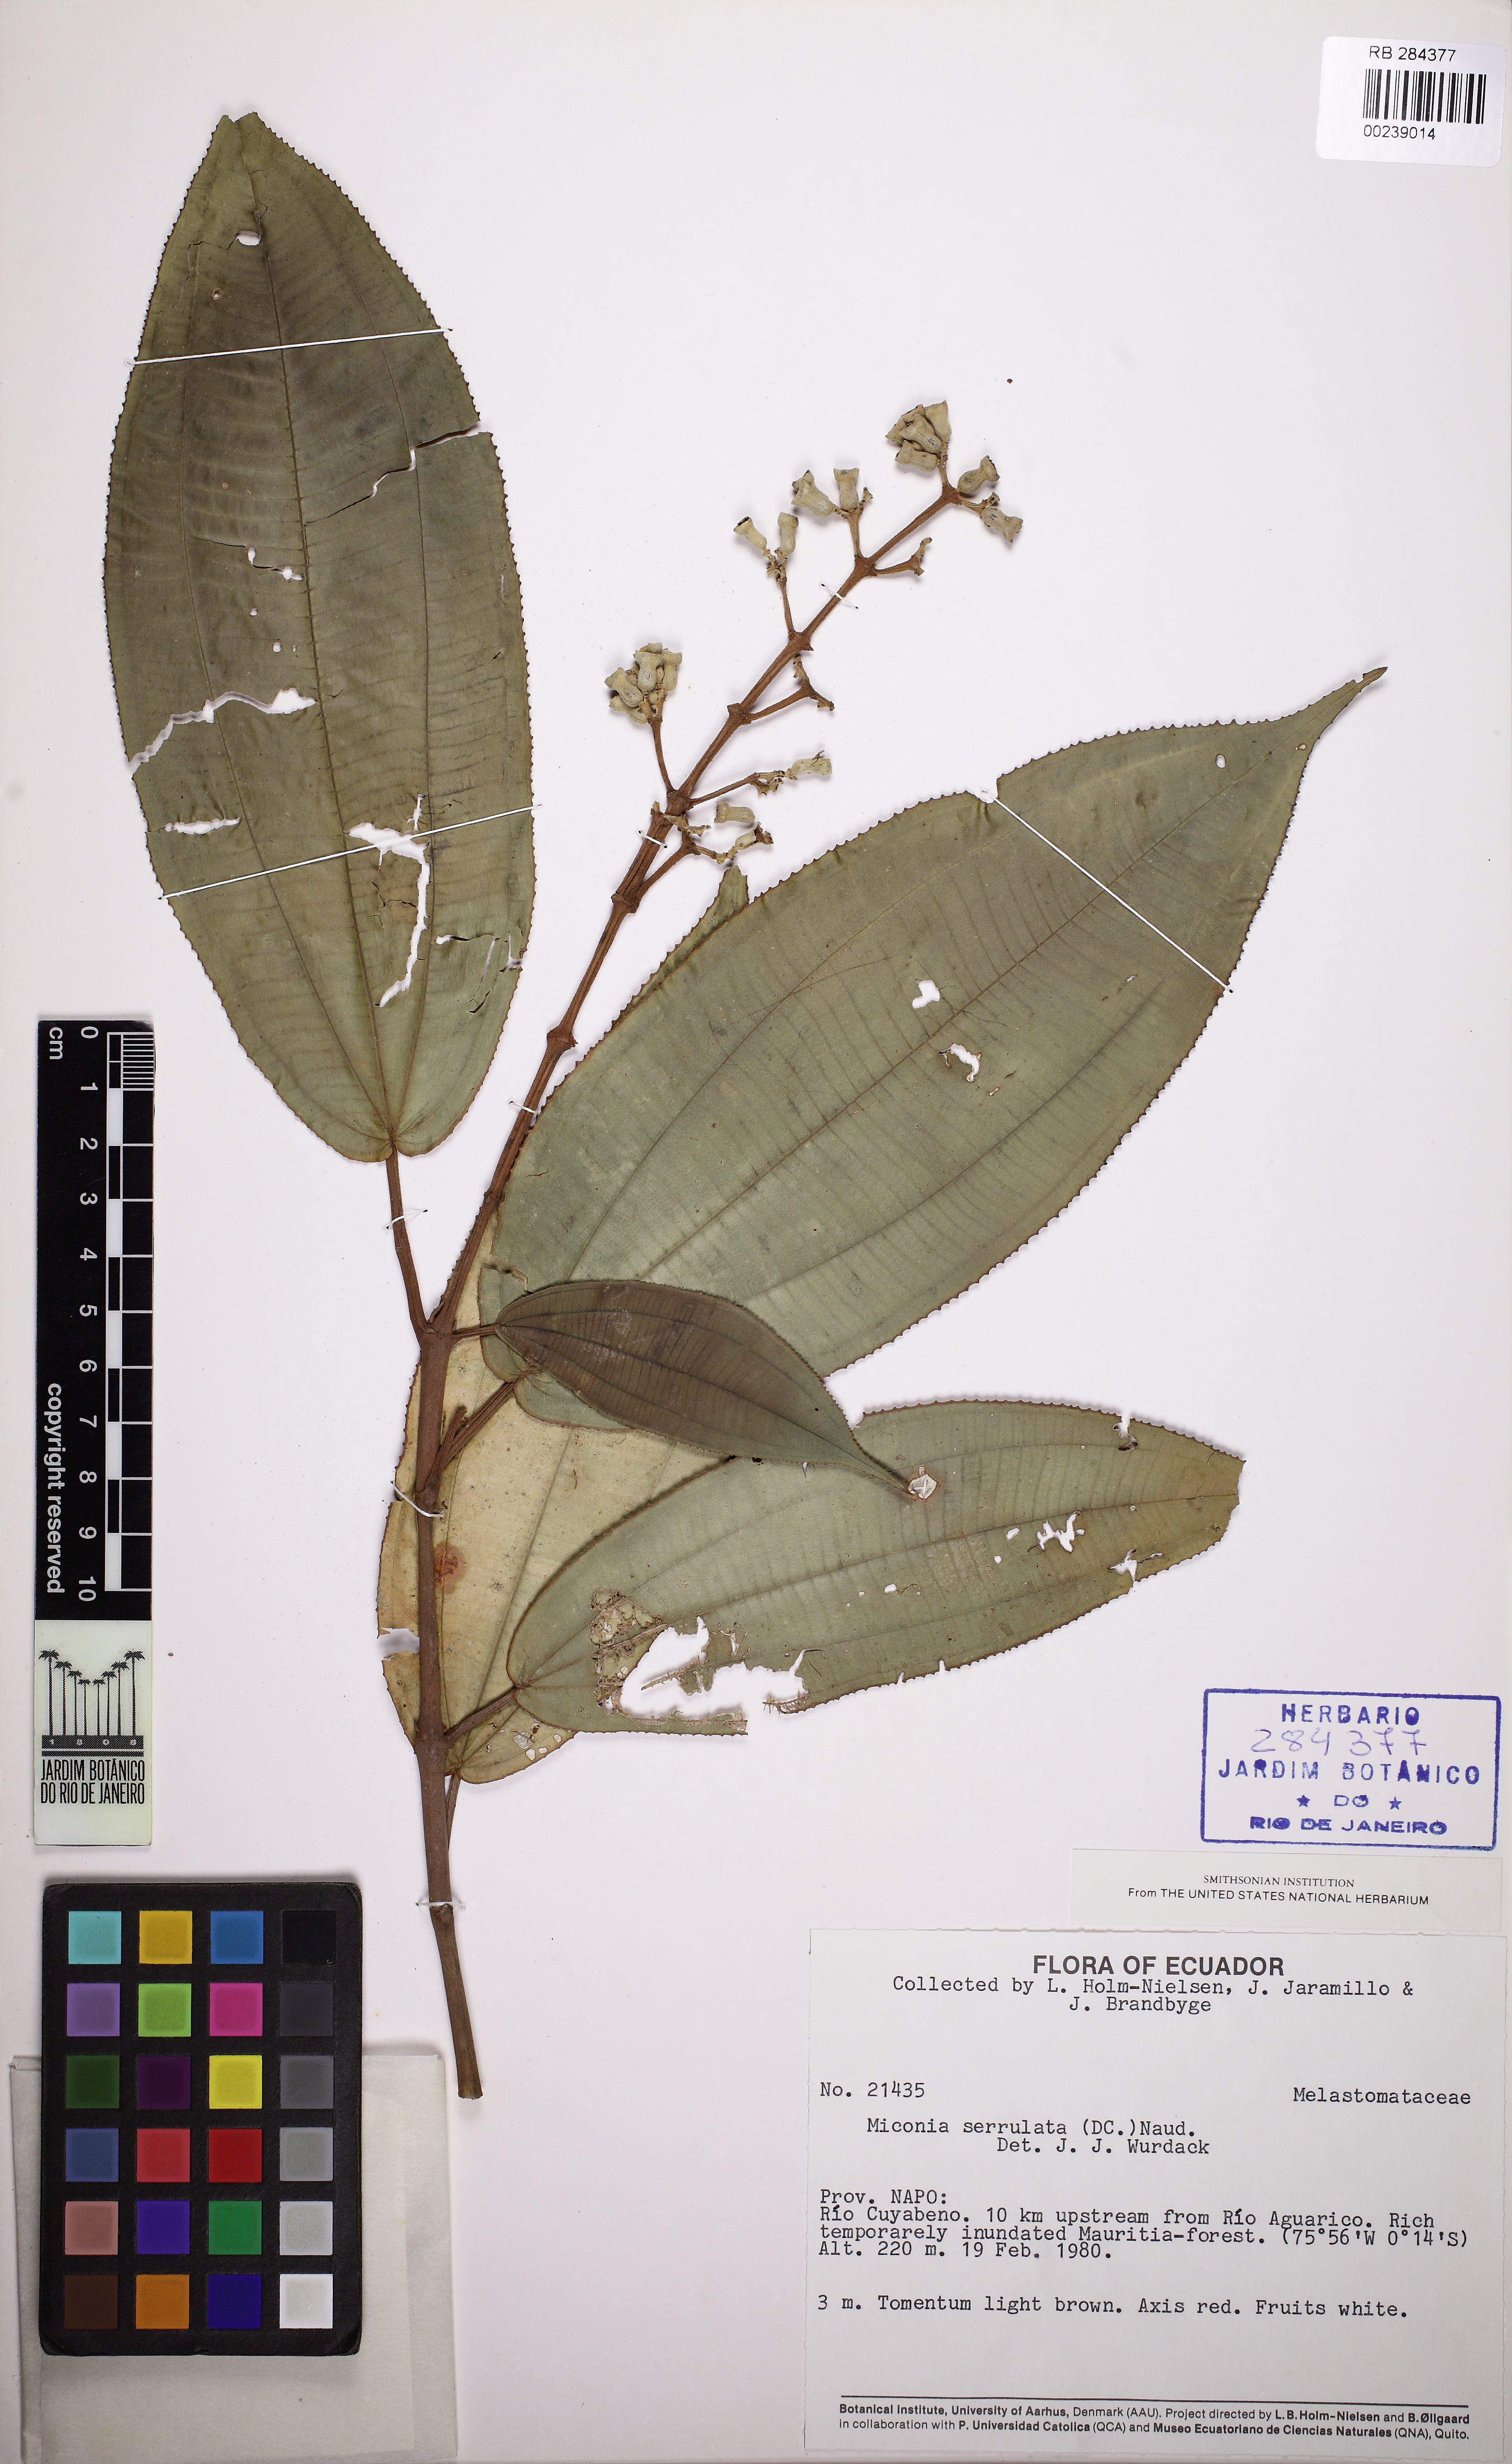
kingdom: Plantae
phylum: Tracheophyta
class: Magnoliopsida
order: Myrtales
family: Melastomataceae
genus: Miconia
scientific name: Miconia serrulata
